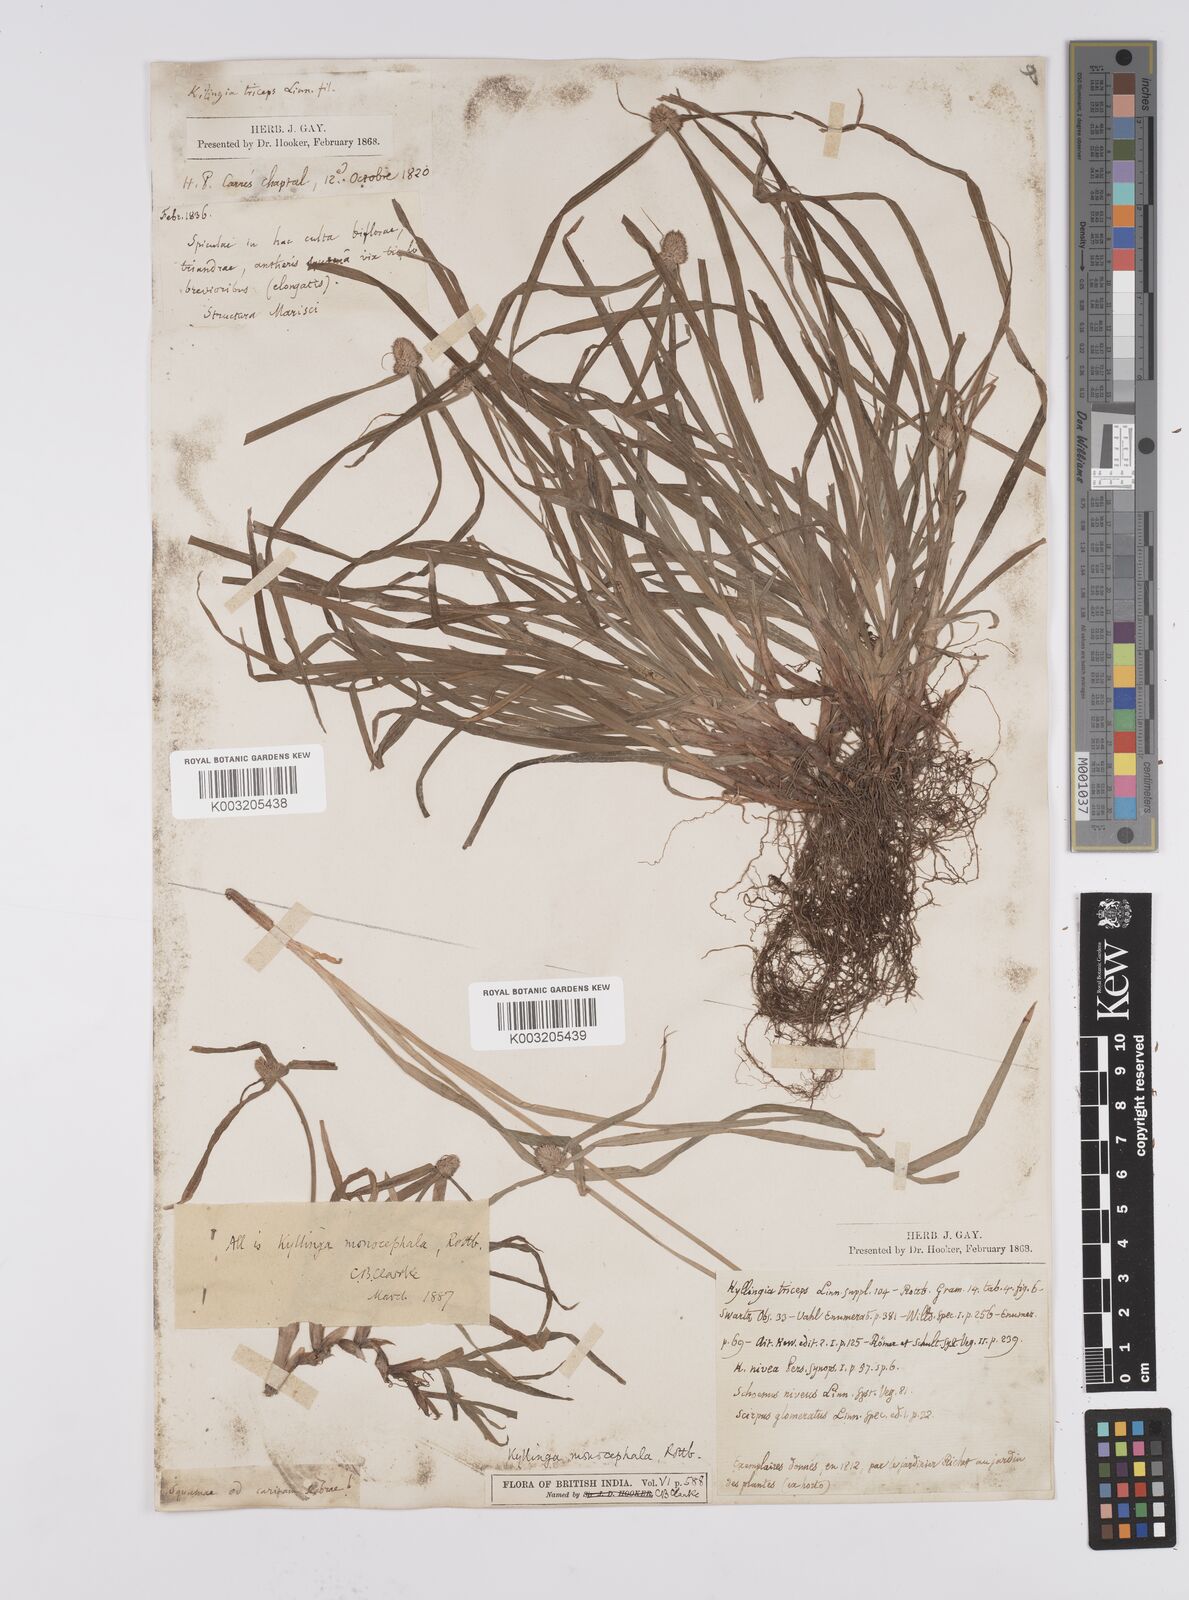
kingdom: Plantae
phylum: Tracheophyta
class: Liliopsida
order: Poales
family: Cyperaceae
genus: Cyperus
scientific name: Cyperus nemoralis
